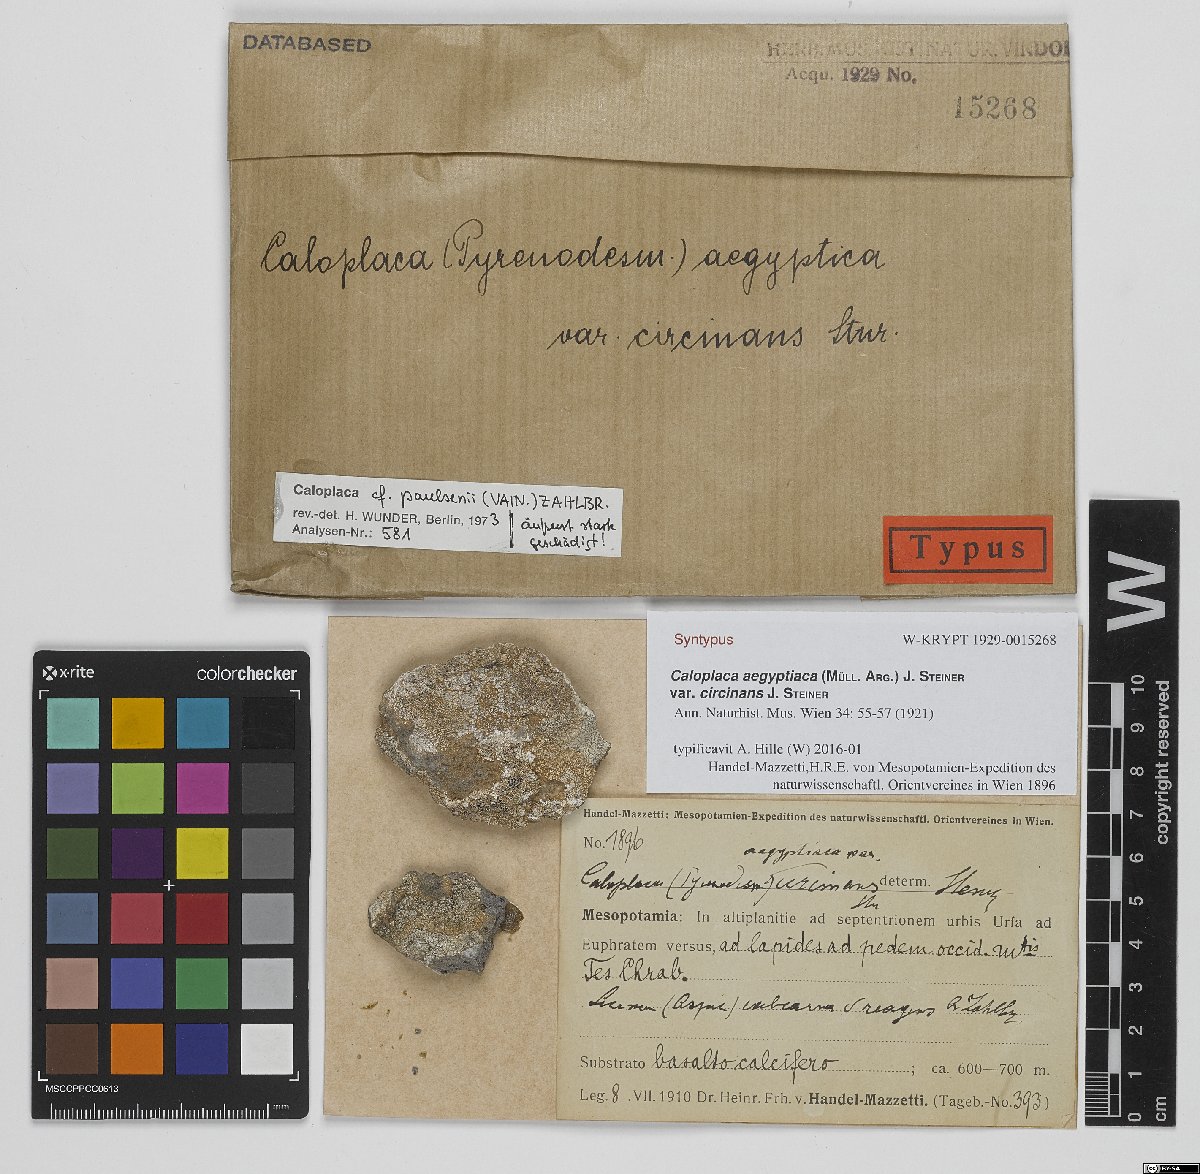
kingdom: Fungi
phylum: Ascomycota
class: Lecanoromycetes
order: Teloschistales
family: Teloschistaceae
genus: Caloplaca
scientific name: Caloplaca
